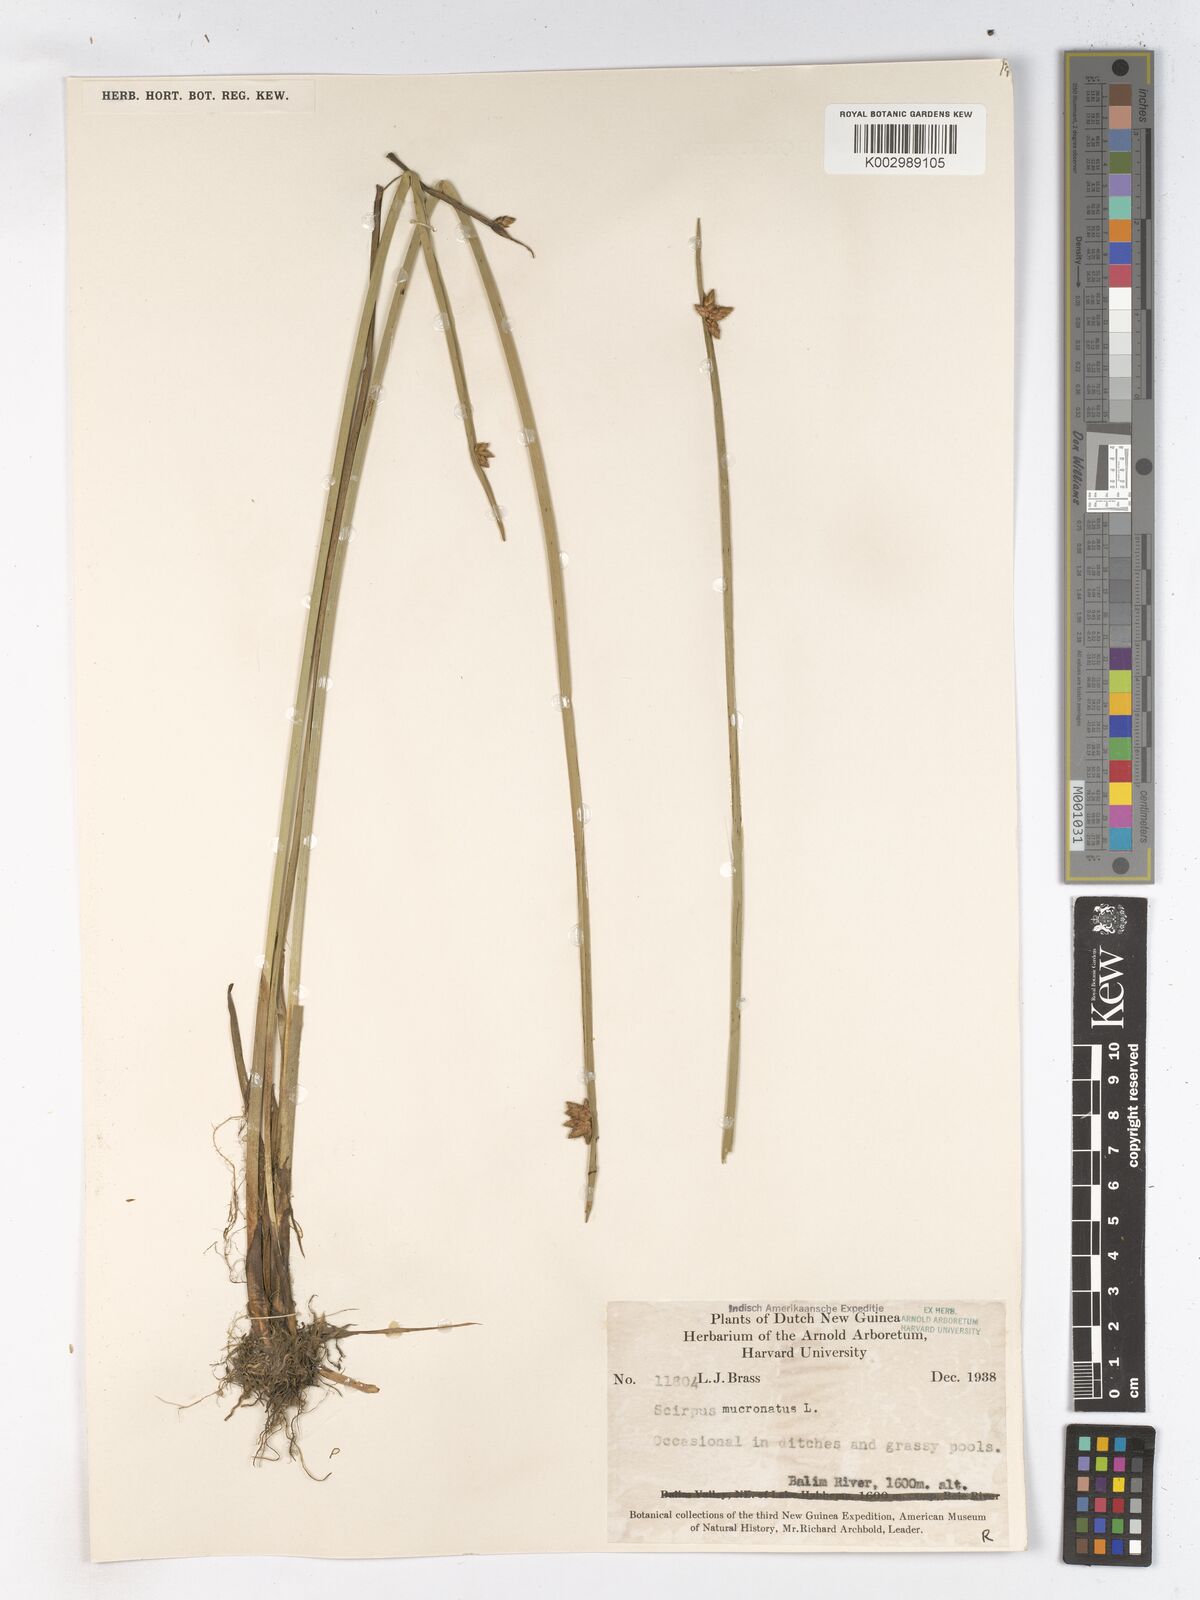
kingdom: Plantae
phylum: Tracheophyta
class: Liliopsida
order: Poales
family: Cyperaceae
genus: Schoenoplectiella
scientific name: Schoenoplectiella mucronata
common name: Bog bulrush
